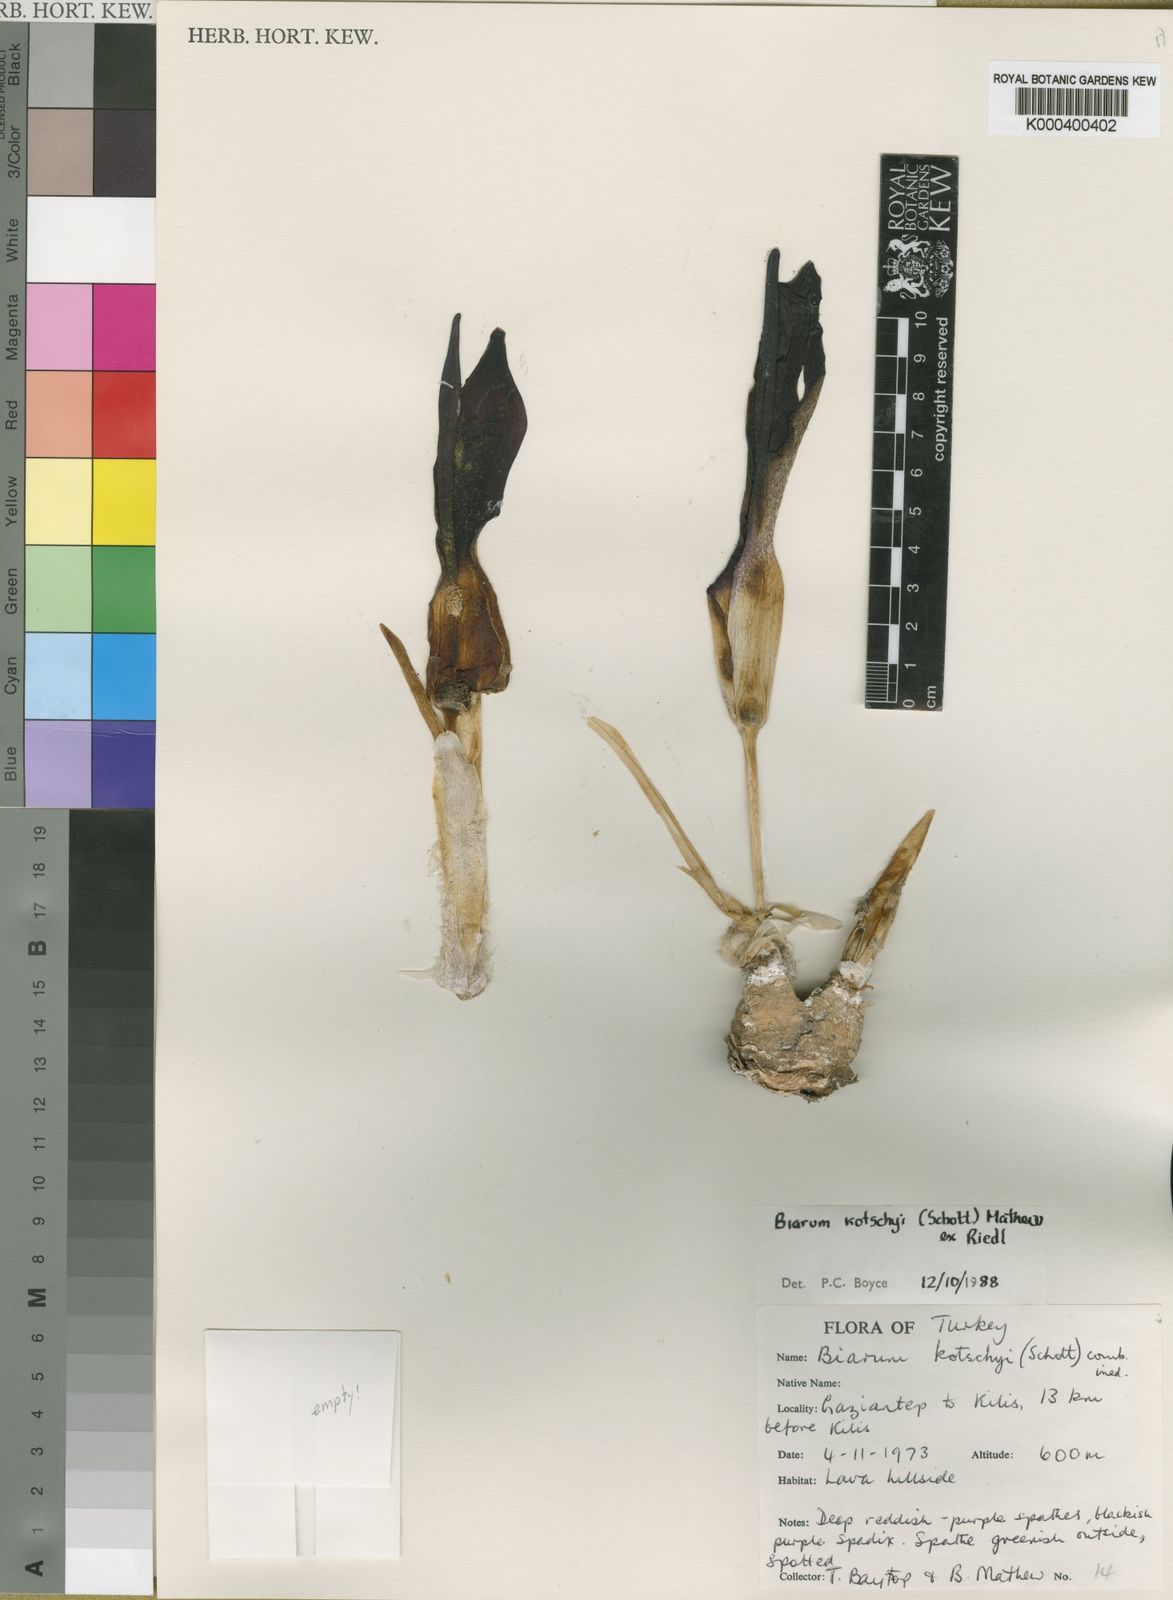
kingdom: Plantae
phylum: Tracheophyta
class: Liliopsida
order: Alismatales
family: Araceae
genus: Biarum
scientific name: Biarum kotschyi
